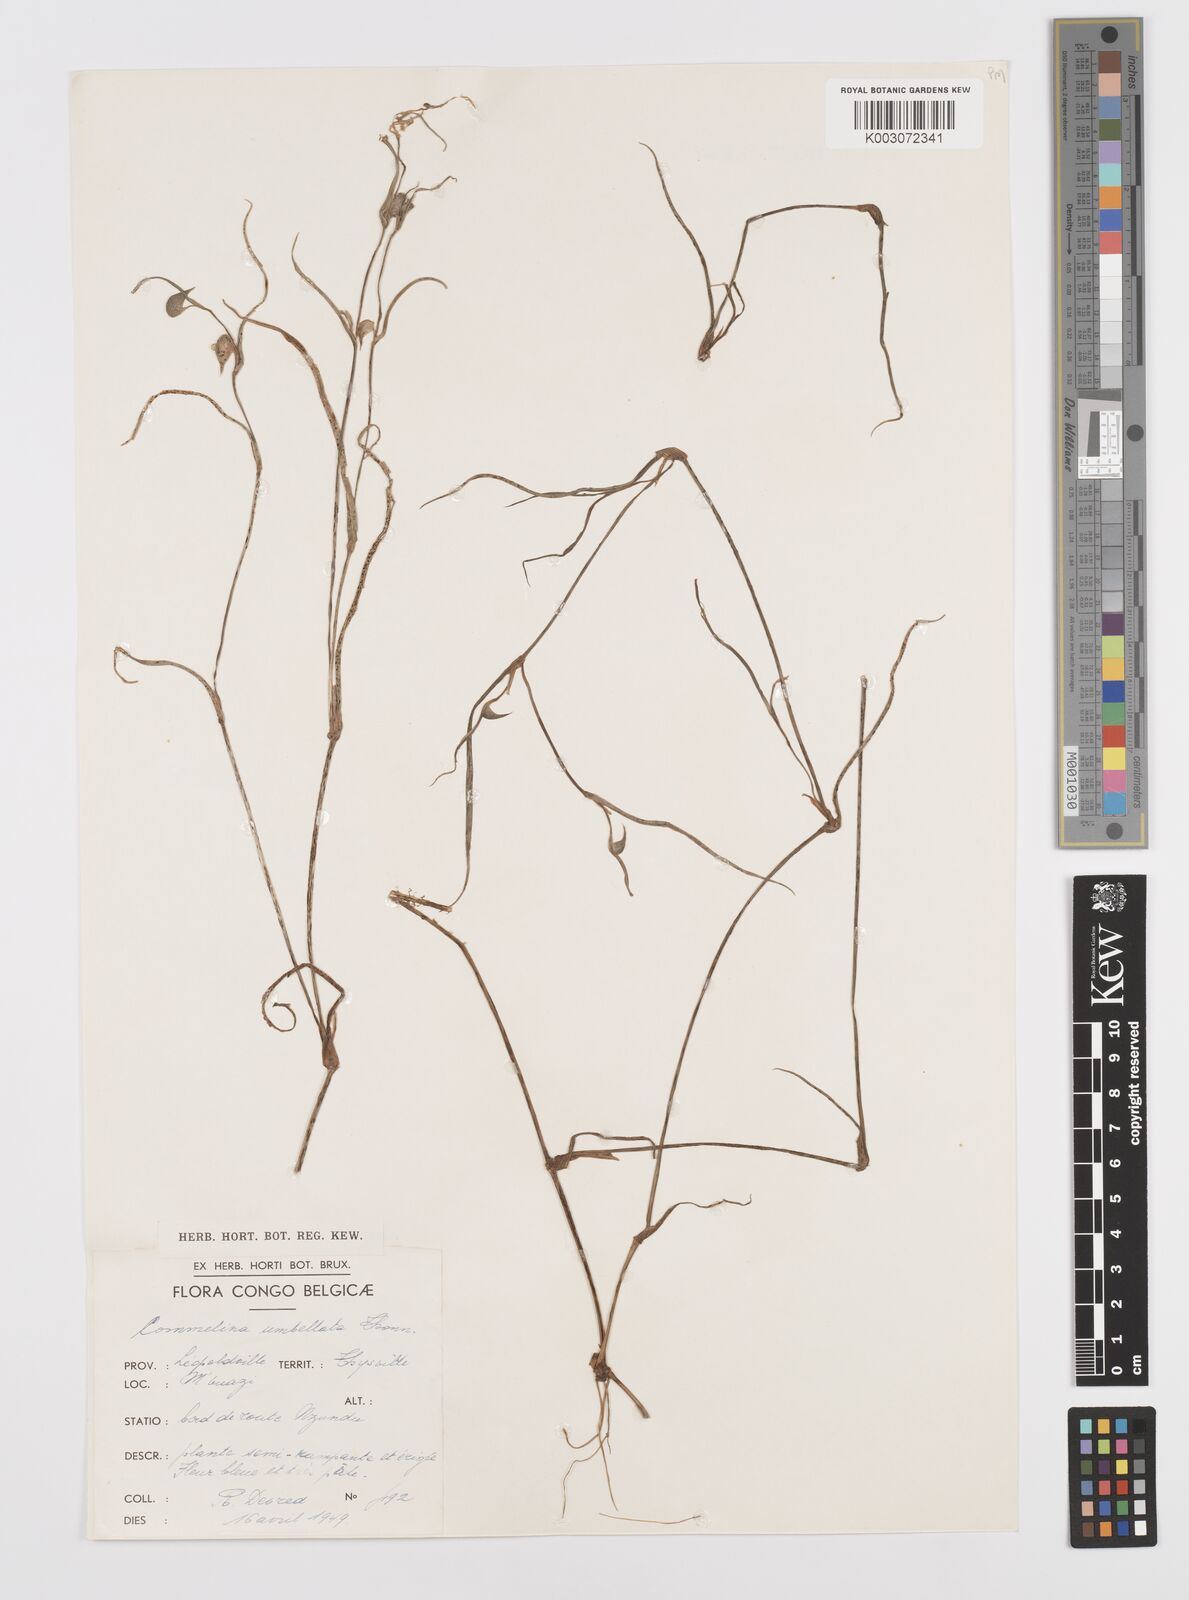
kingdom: Plantae
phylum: Tracheophyta
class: Liliopsida
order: Commelinales
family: Commelinaceae
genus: Commelina
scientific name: Commelina
